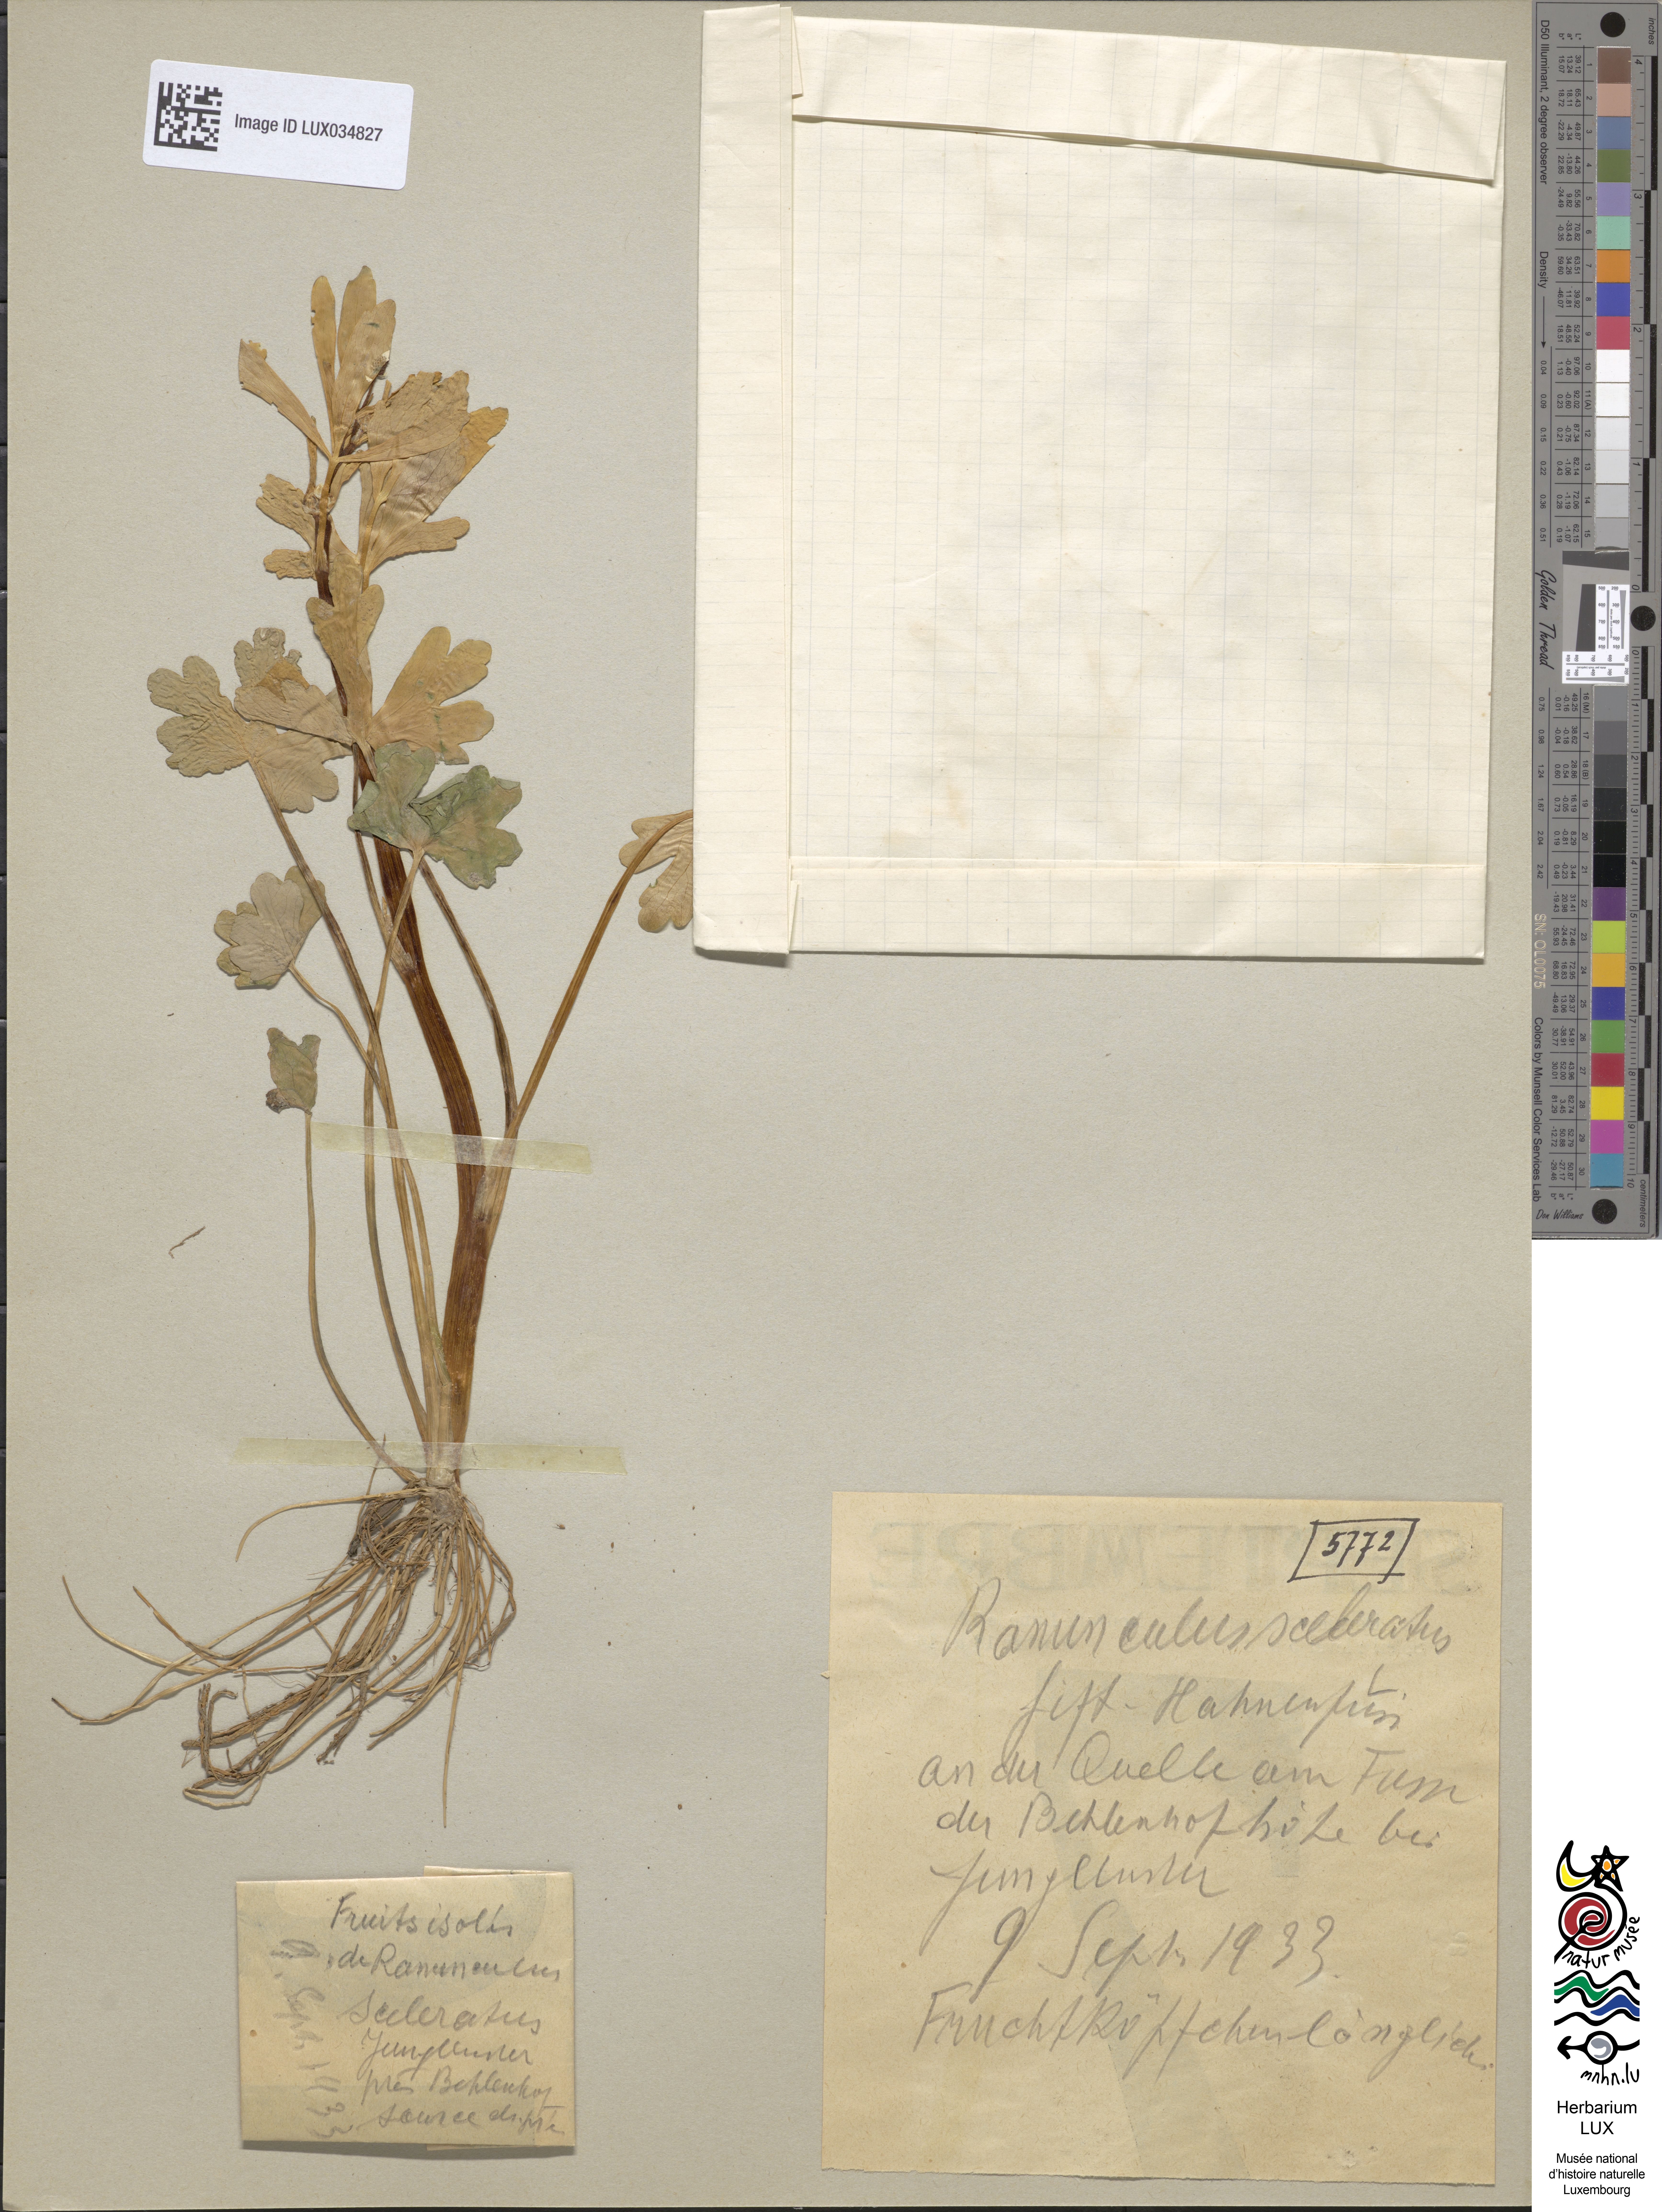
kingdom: Plantae
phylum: Tracheophyta
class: Magnoliopsida
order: Ranunculales
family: Ranunculaceae
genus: Ranunculus
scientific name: Ranunculus sceleratus
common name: Celery-leaved buttercup
